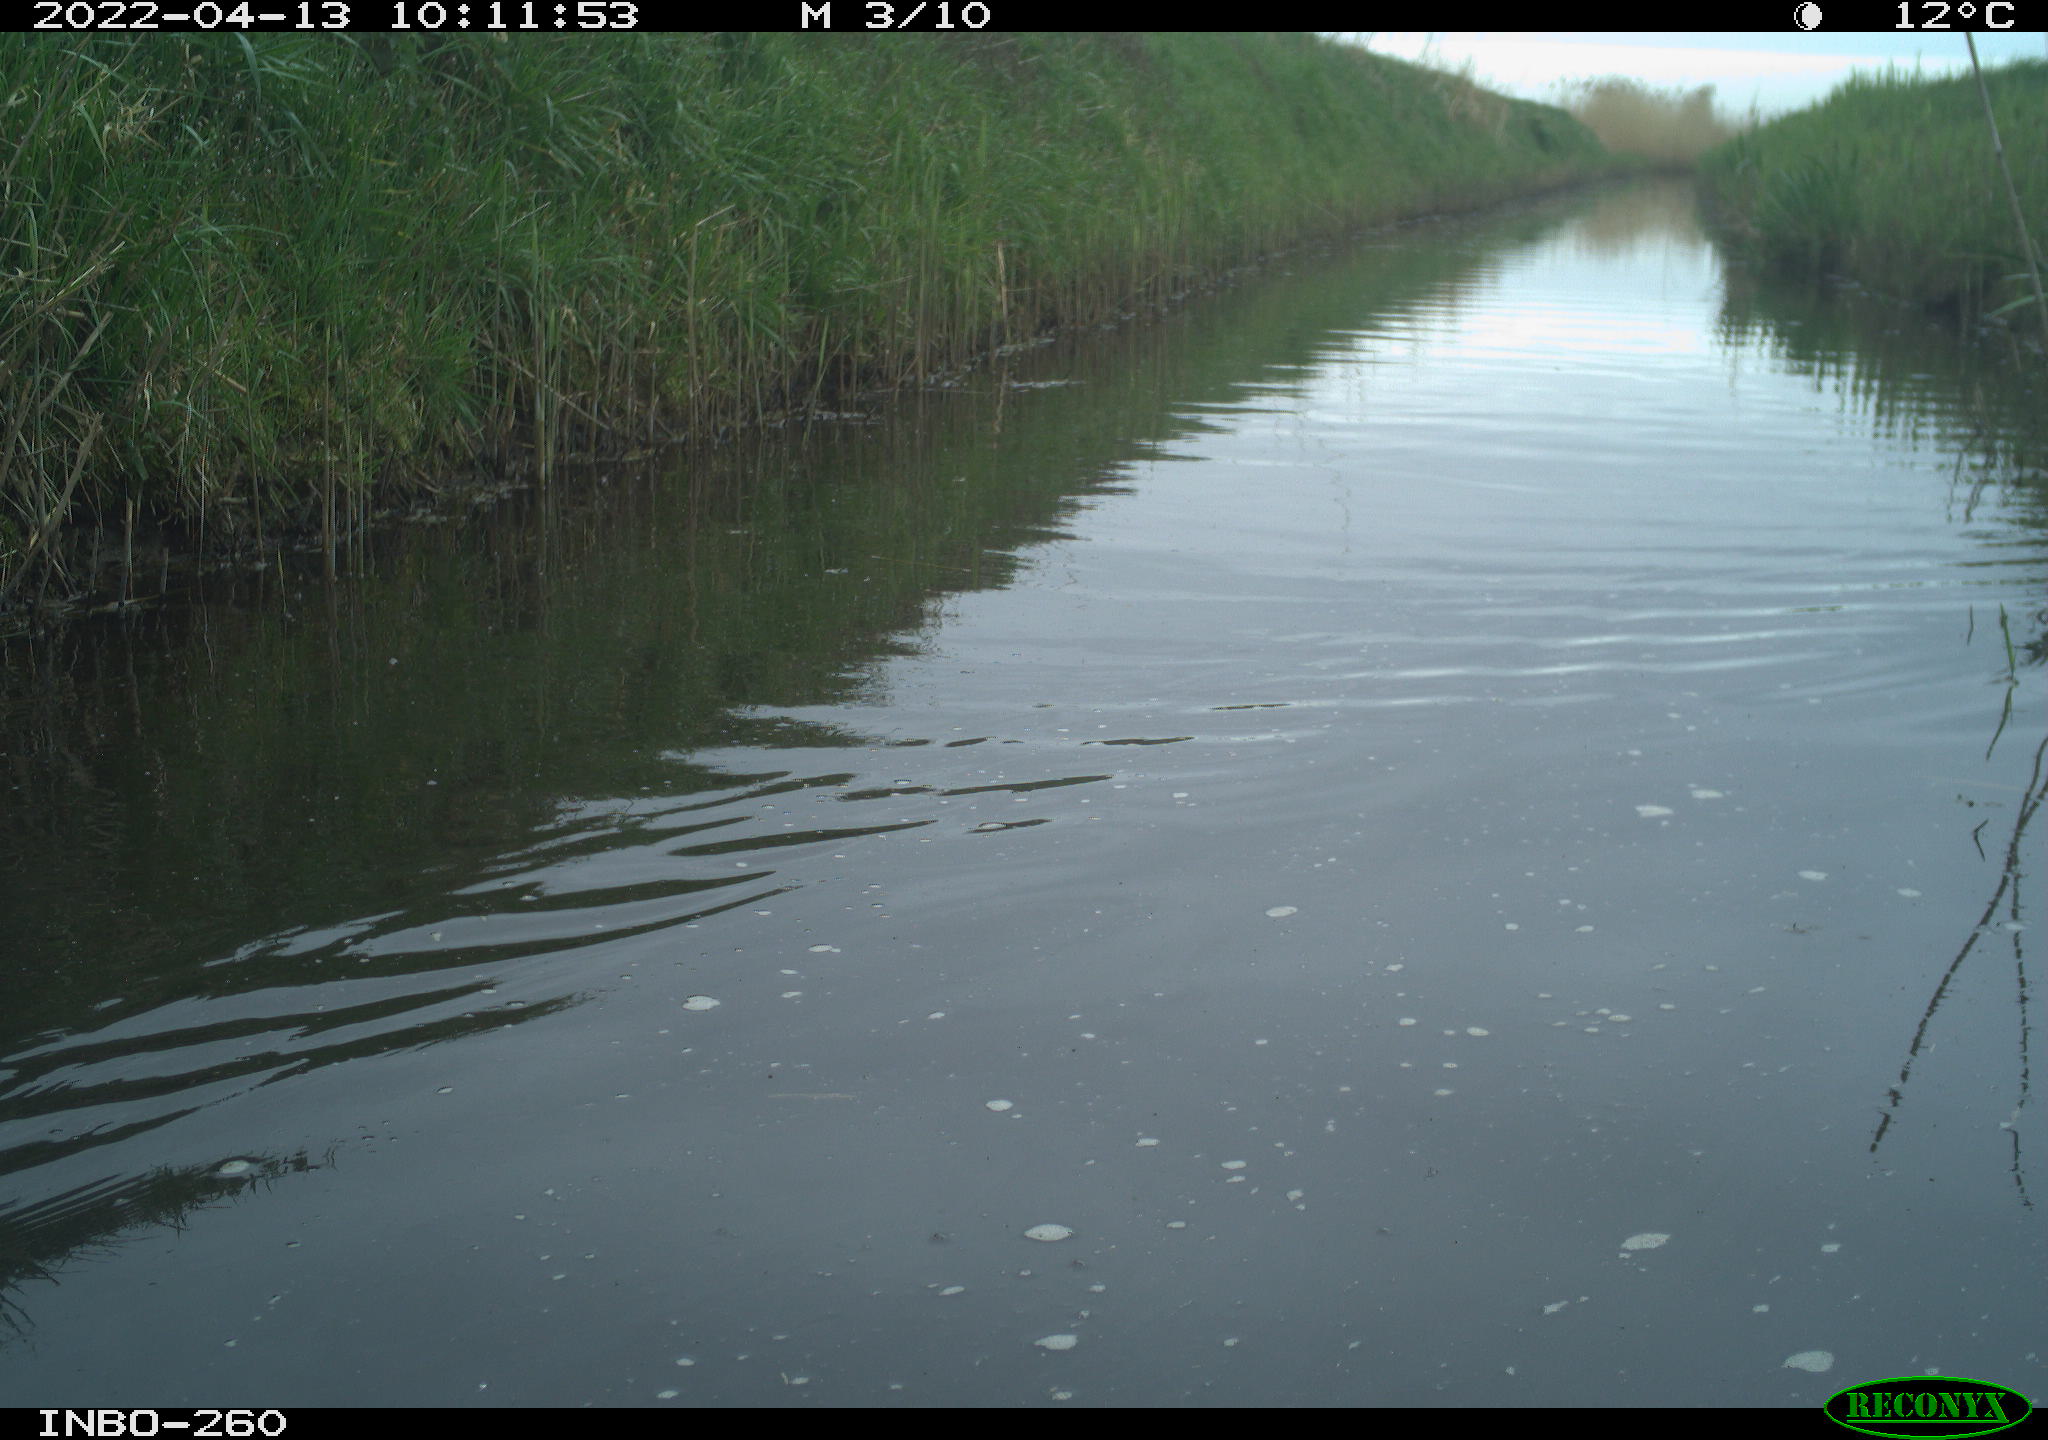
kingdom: Animalia
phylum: Chordata
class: Aves
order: Gruiformes
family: Rallidae
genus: Fulica
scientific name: Fulica atra
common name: Eurasian coot
